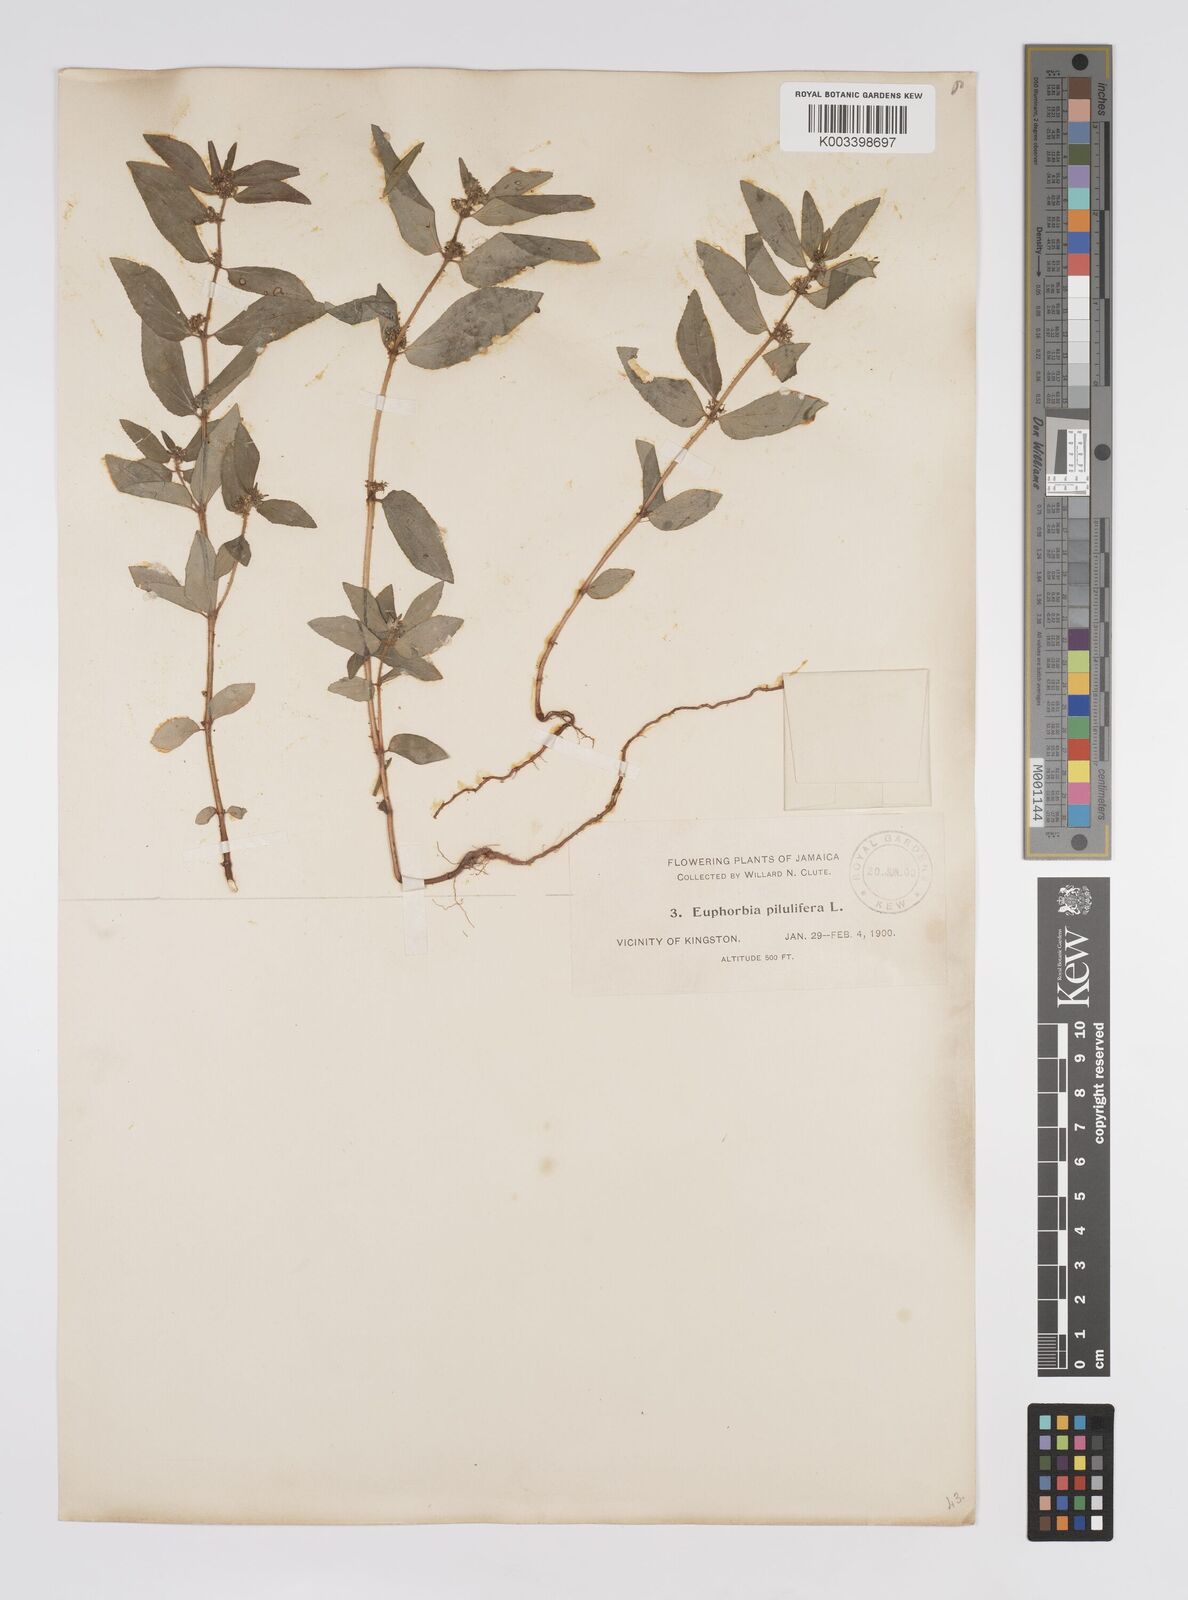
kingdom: Plantae
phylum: Tracheophyta
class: Magnoliopsida
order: Malpighiales
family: Euphorbiaceae
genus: Euphorbia
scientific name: Euphorbia hirta
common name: Pillpod sandmat
